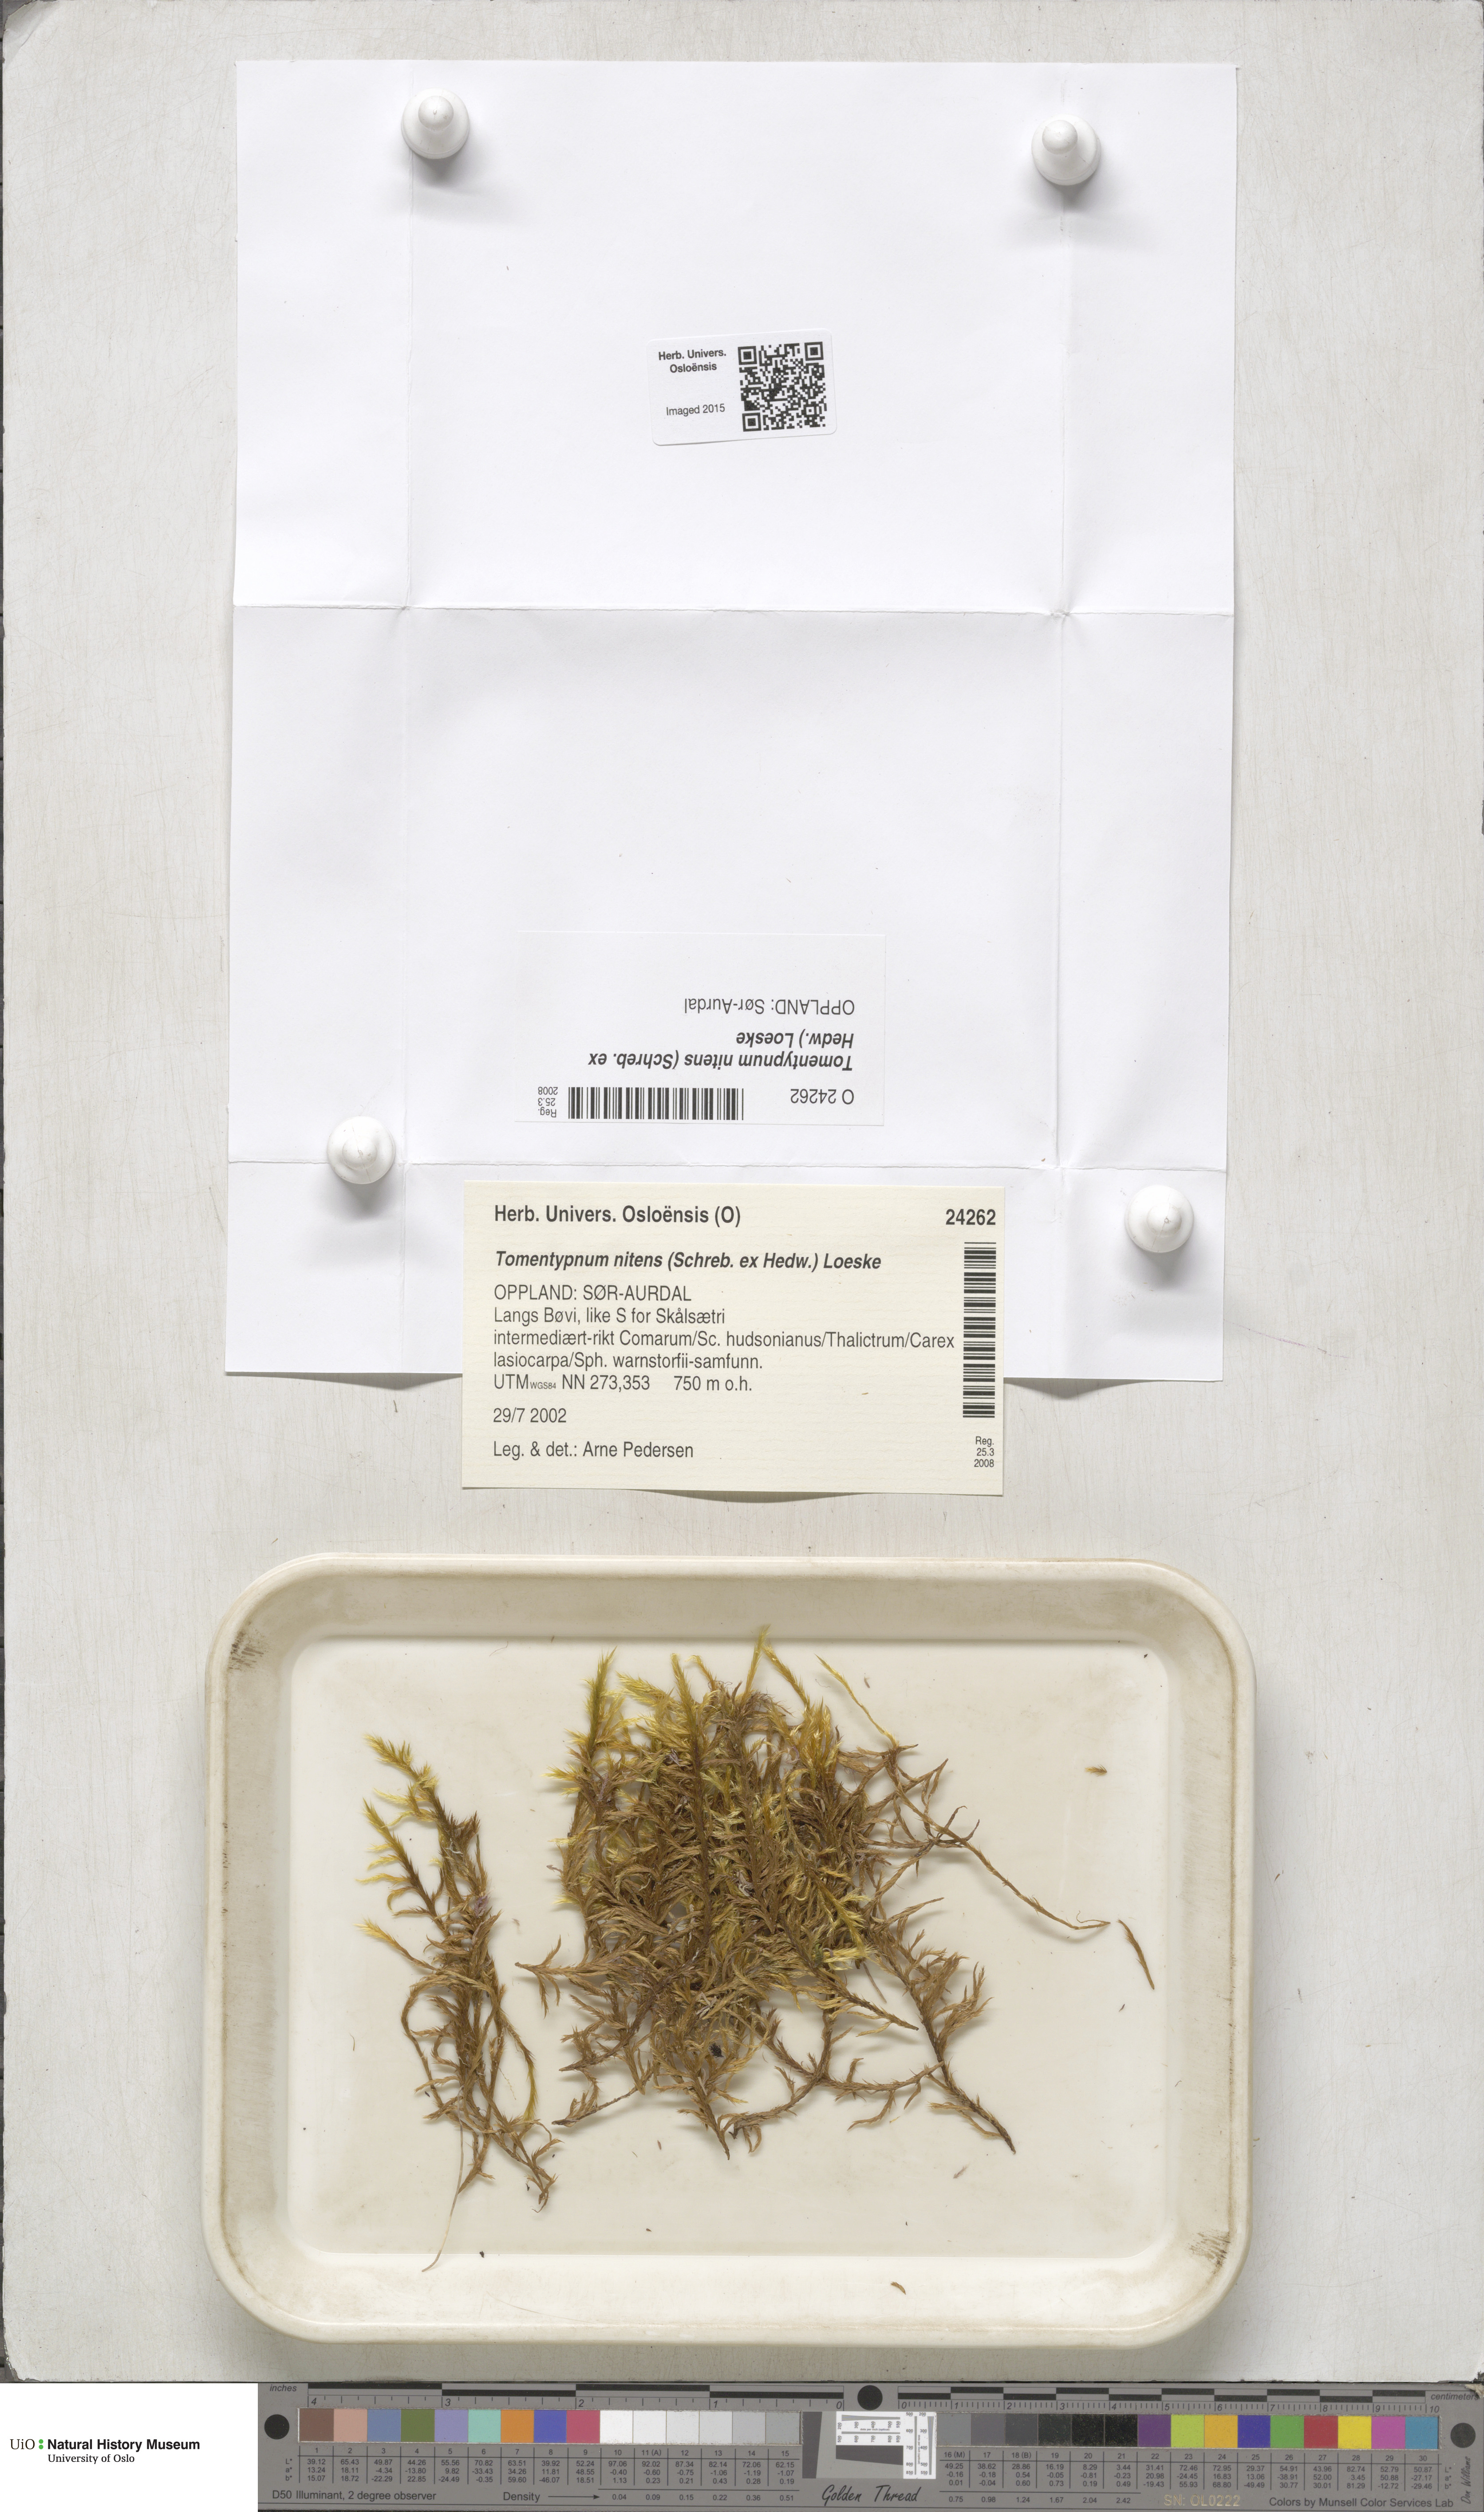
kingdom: Plantae
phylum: Bryophyta
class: Bryopsida
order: Hypnales
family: Amblystegiaceae
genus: Tomentypnum
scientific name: Tomentypnum nitens
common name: Golden fuzzy fen moss
